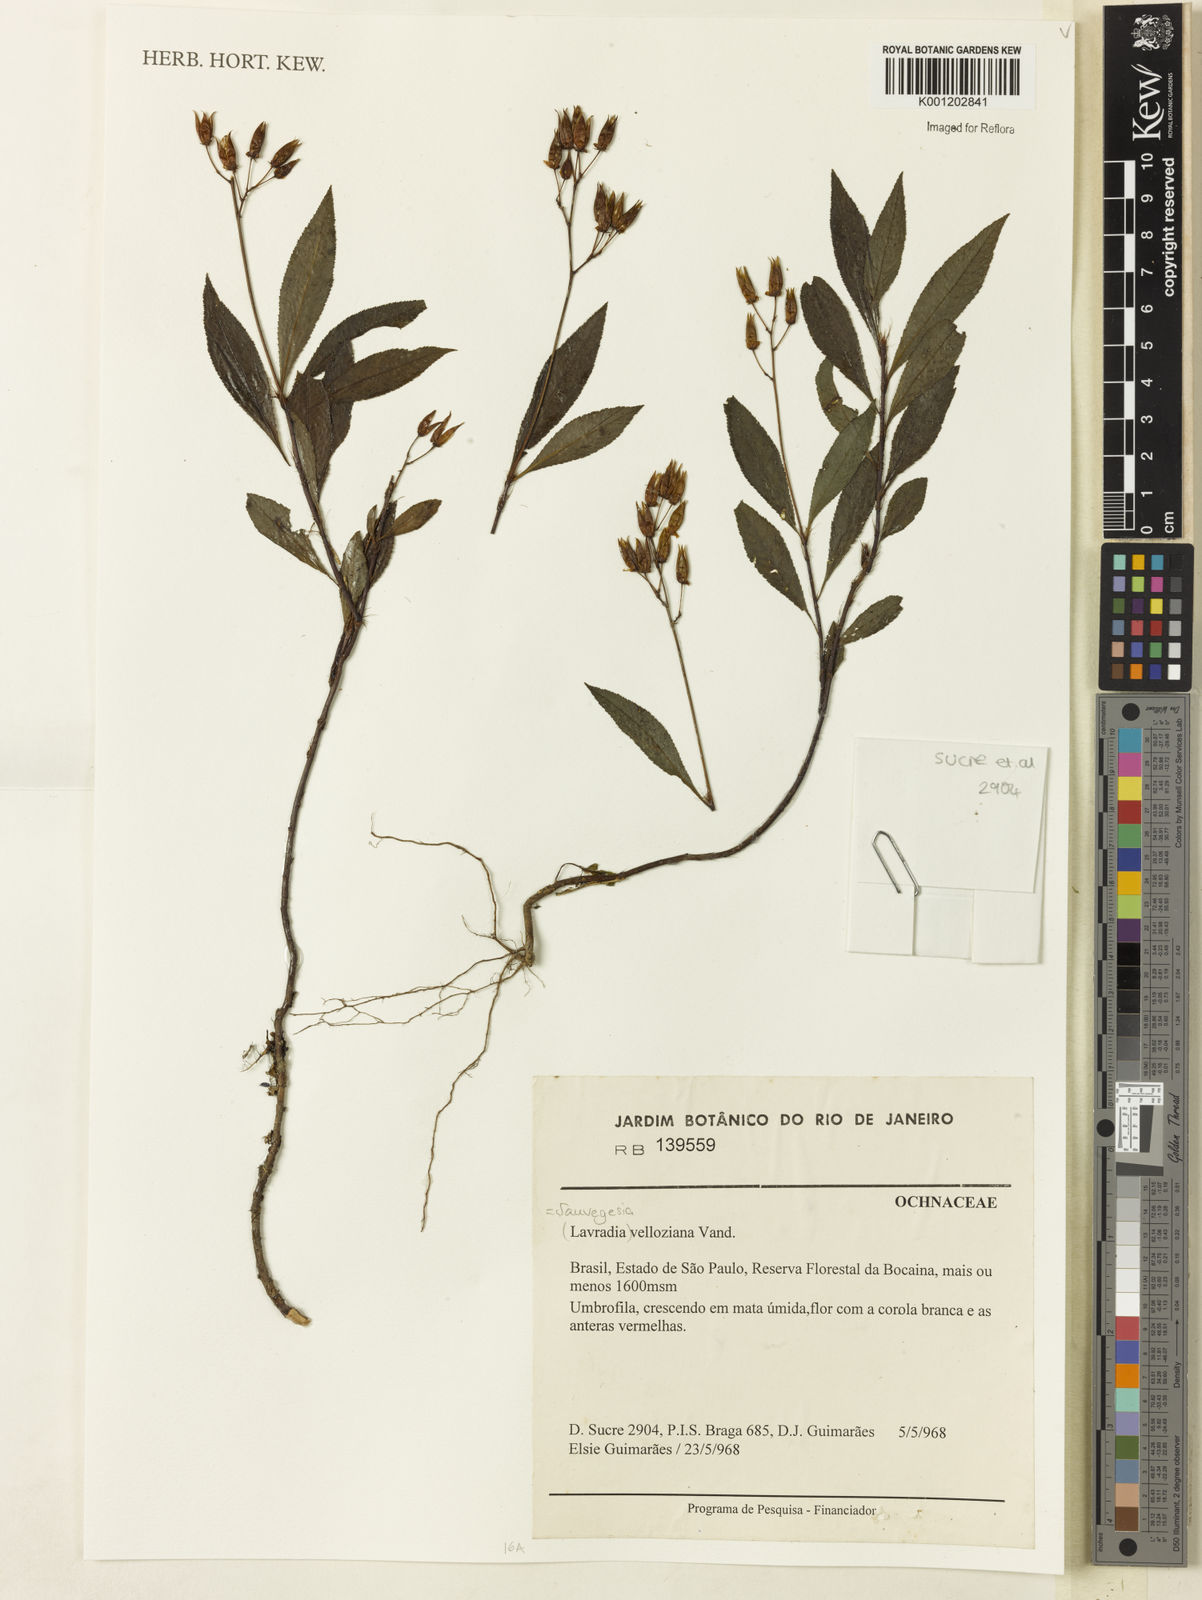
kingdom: Plantae
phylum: Tracheophyta
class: Magnoliopsida
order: Malpighiales
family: Ochnaceae
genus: Sauvagesia
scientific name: Sauvagesia
